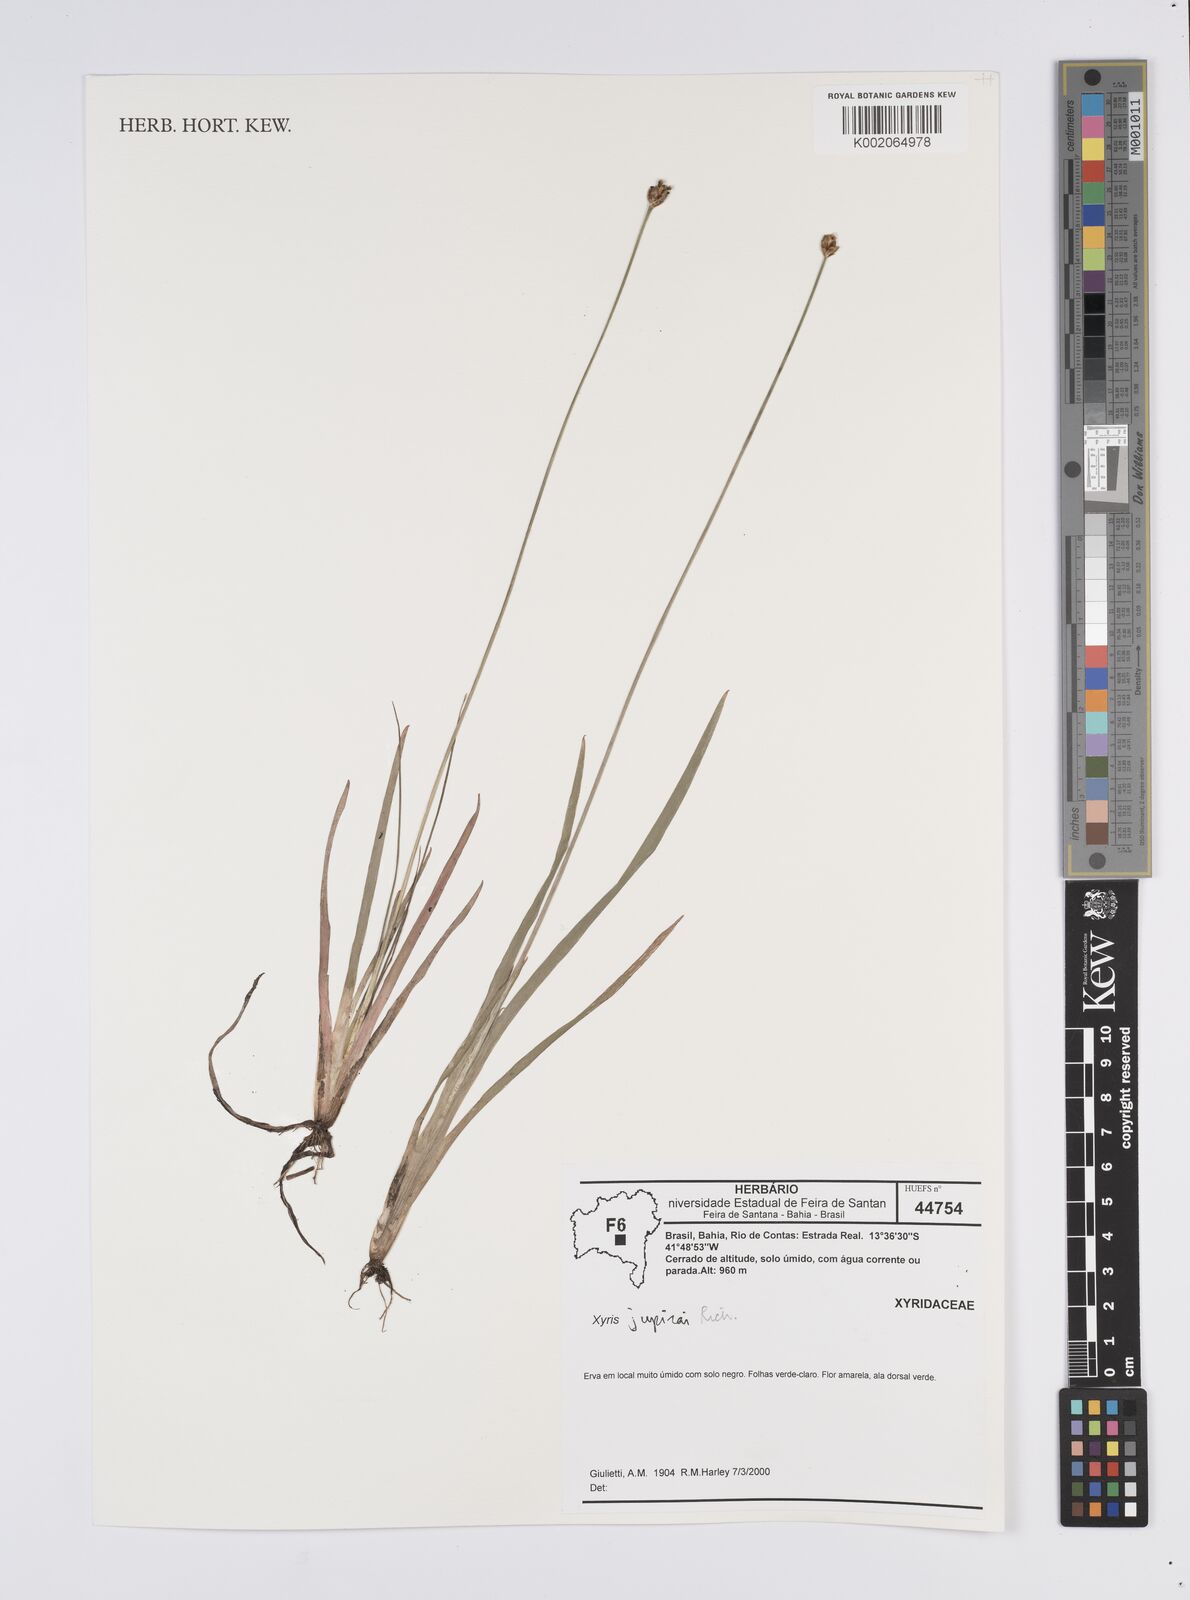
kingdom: Plantae
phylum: Tracheophyta
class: Liliopsida
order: Poales
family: Xyridaceae
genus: Xyris
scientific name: Xyris jupicai
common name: Richard's yelloweyed grass
